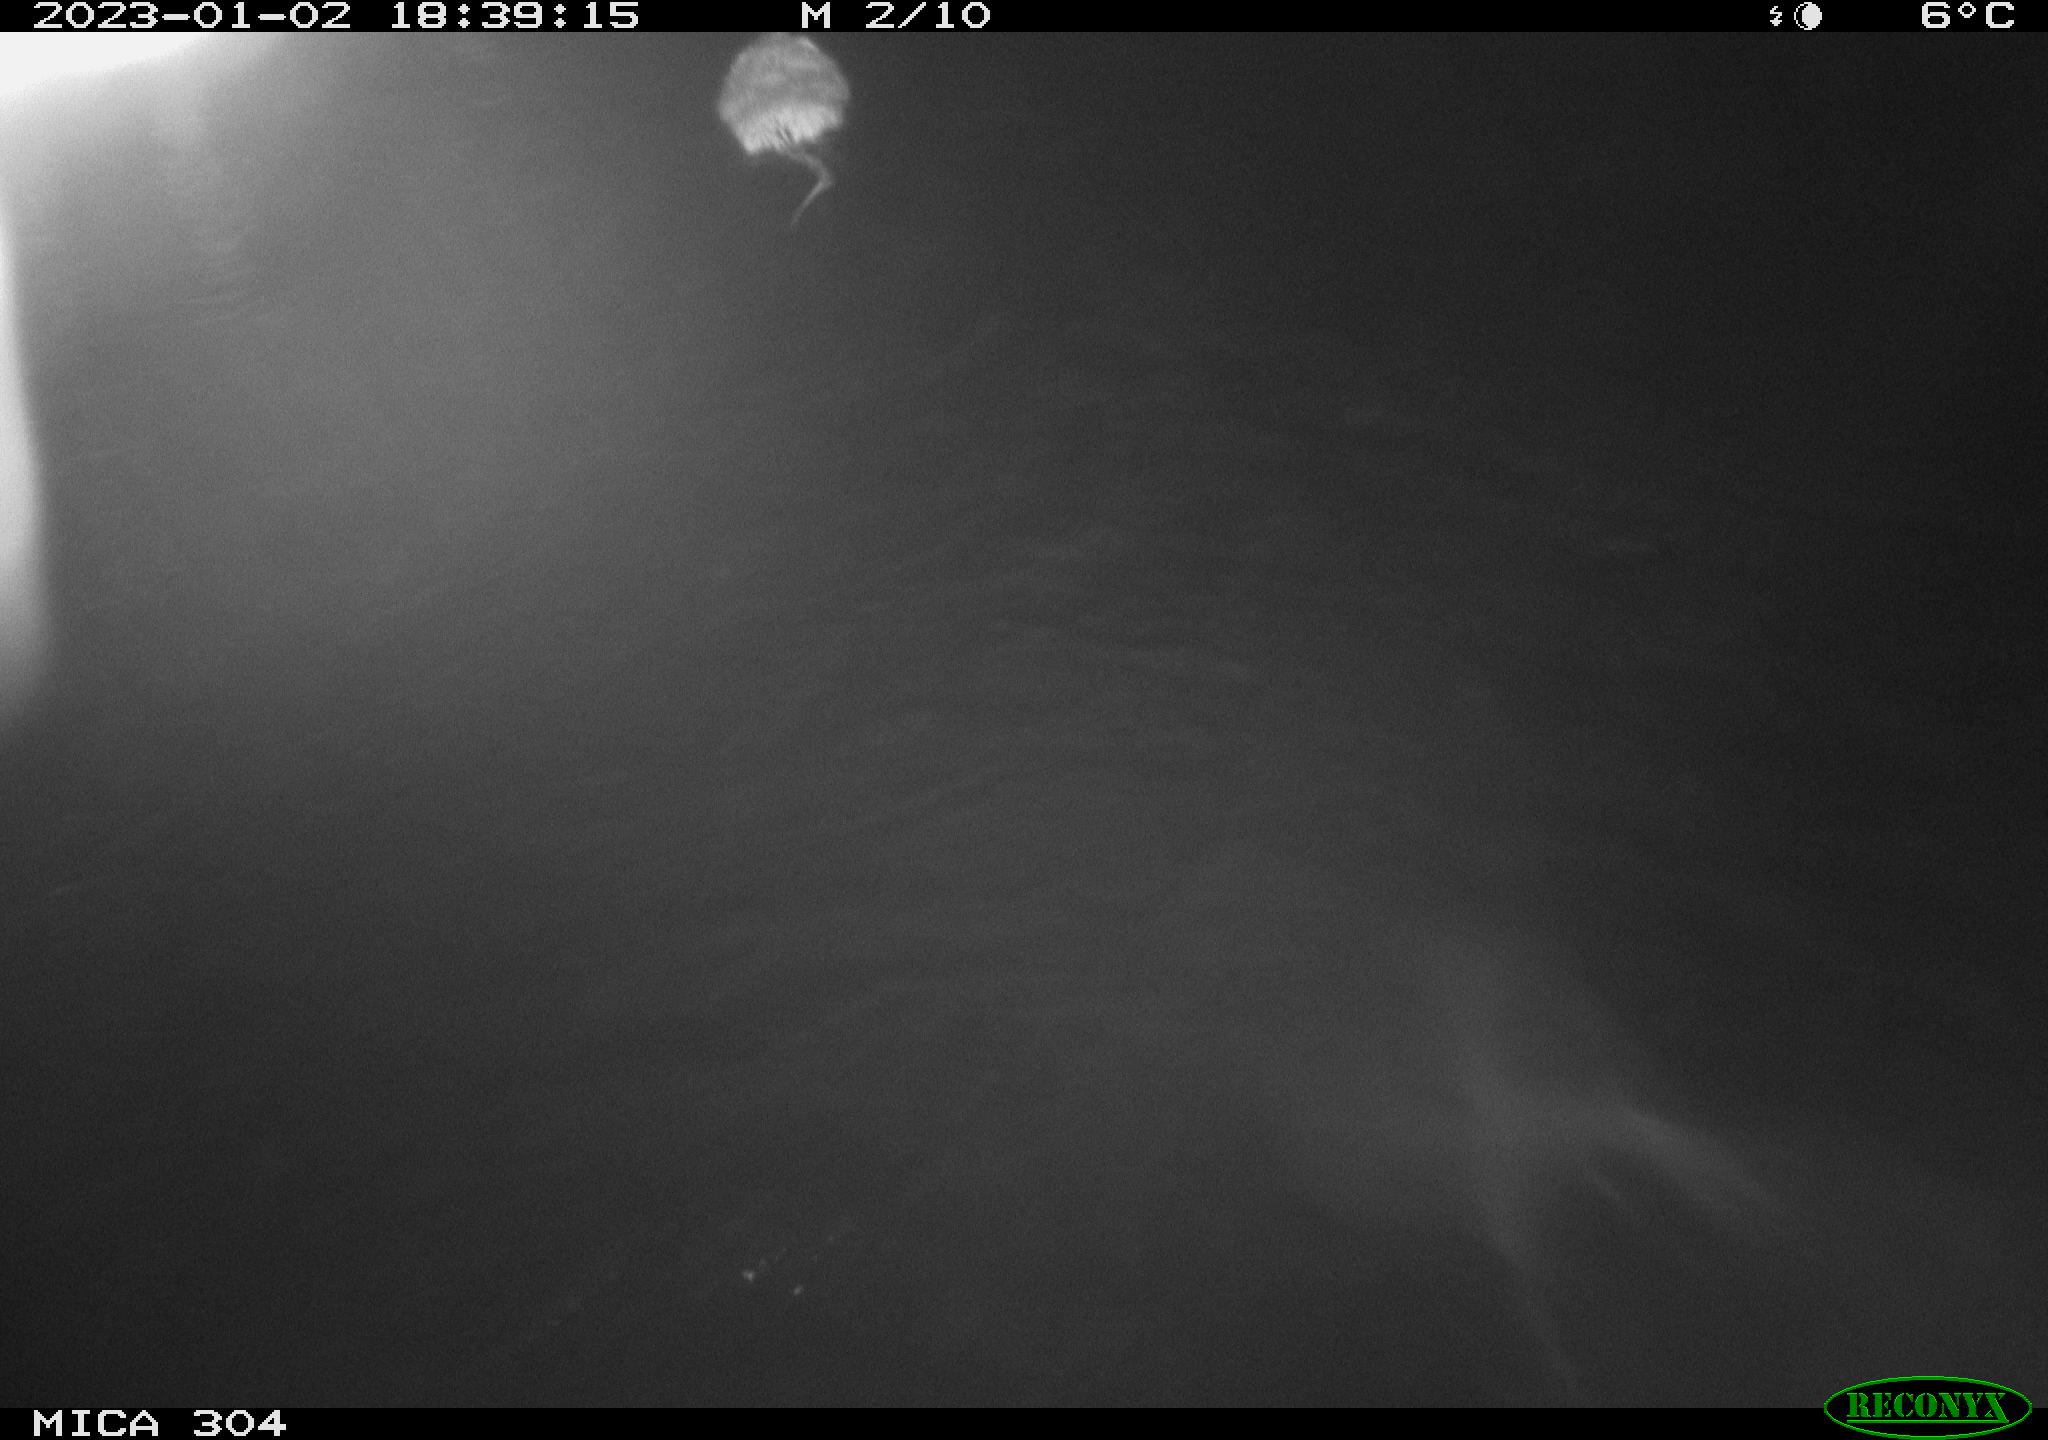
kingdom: Animalia
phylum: Chordata
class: Mammalia
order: Rodentia
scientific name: Rodentia
